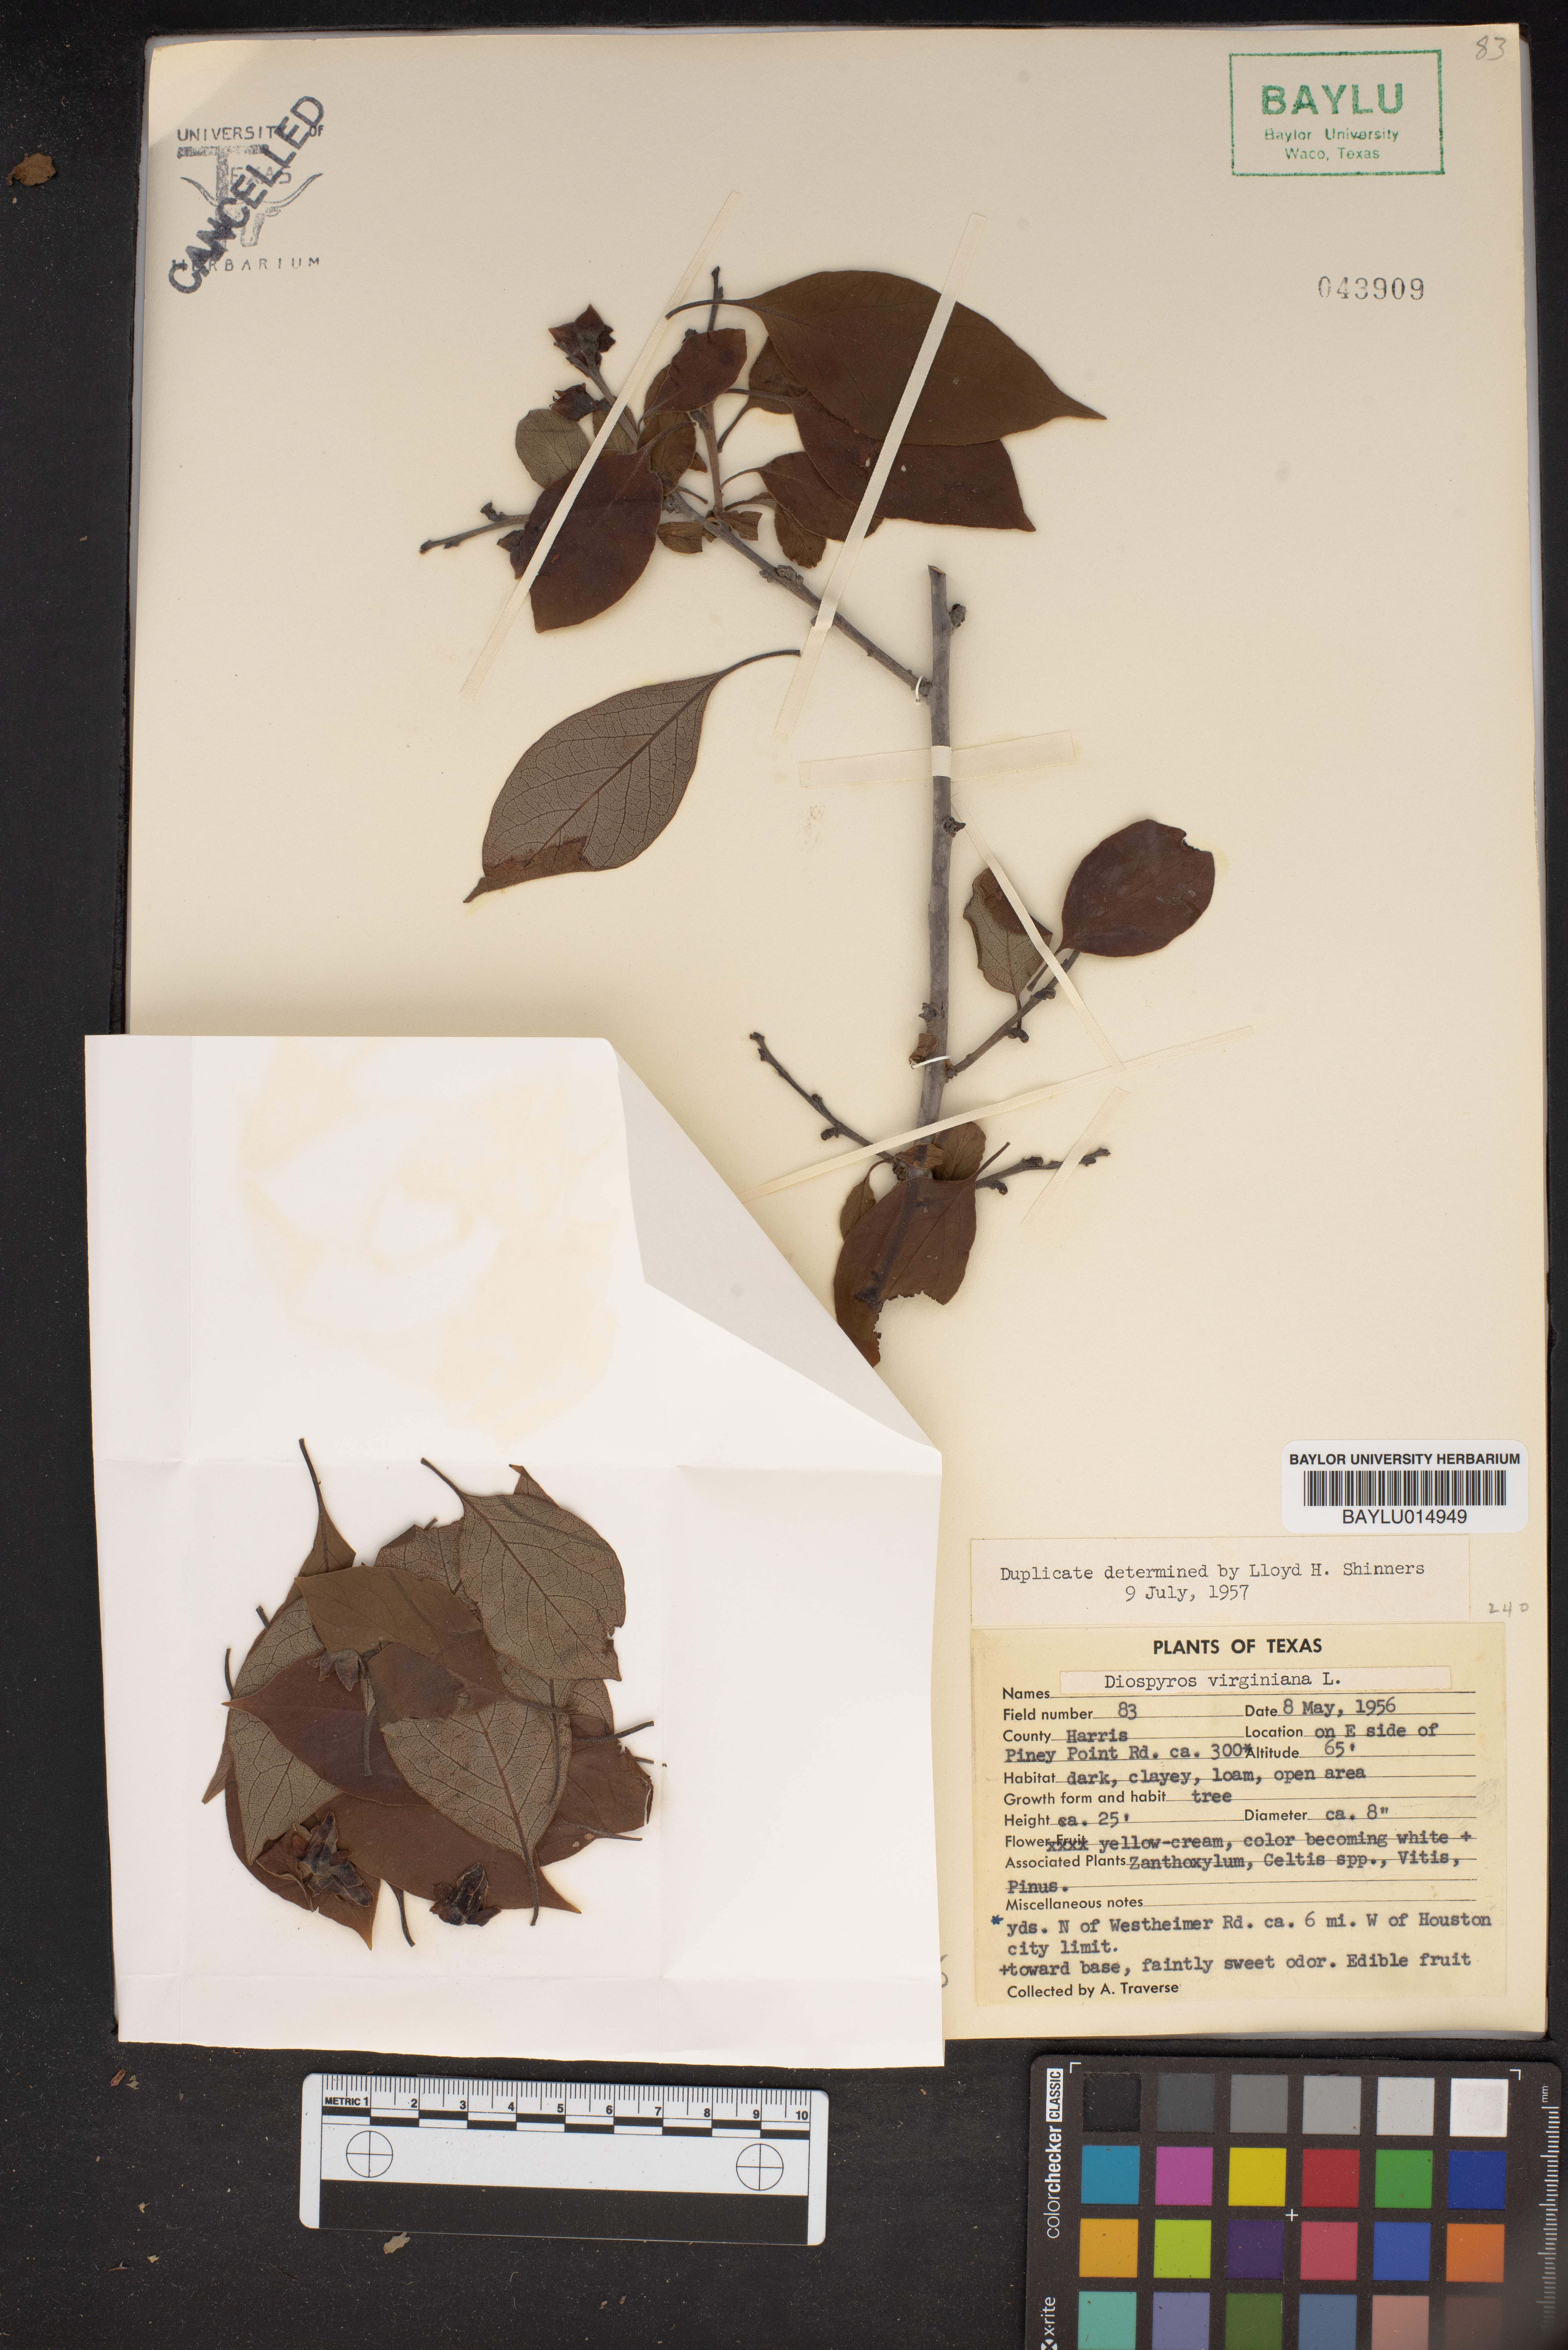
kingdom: Plantae
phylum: Tracheophyta
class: Magnoliopsida
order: Ericales
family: Ebenaceae
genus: Diospyros
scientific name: Diospyros virginiana
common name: Persimmon
